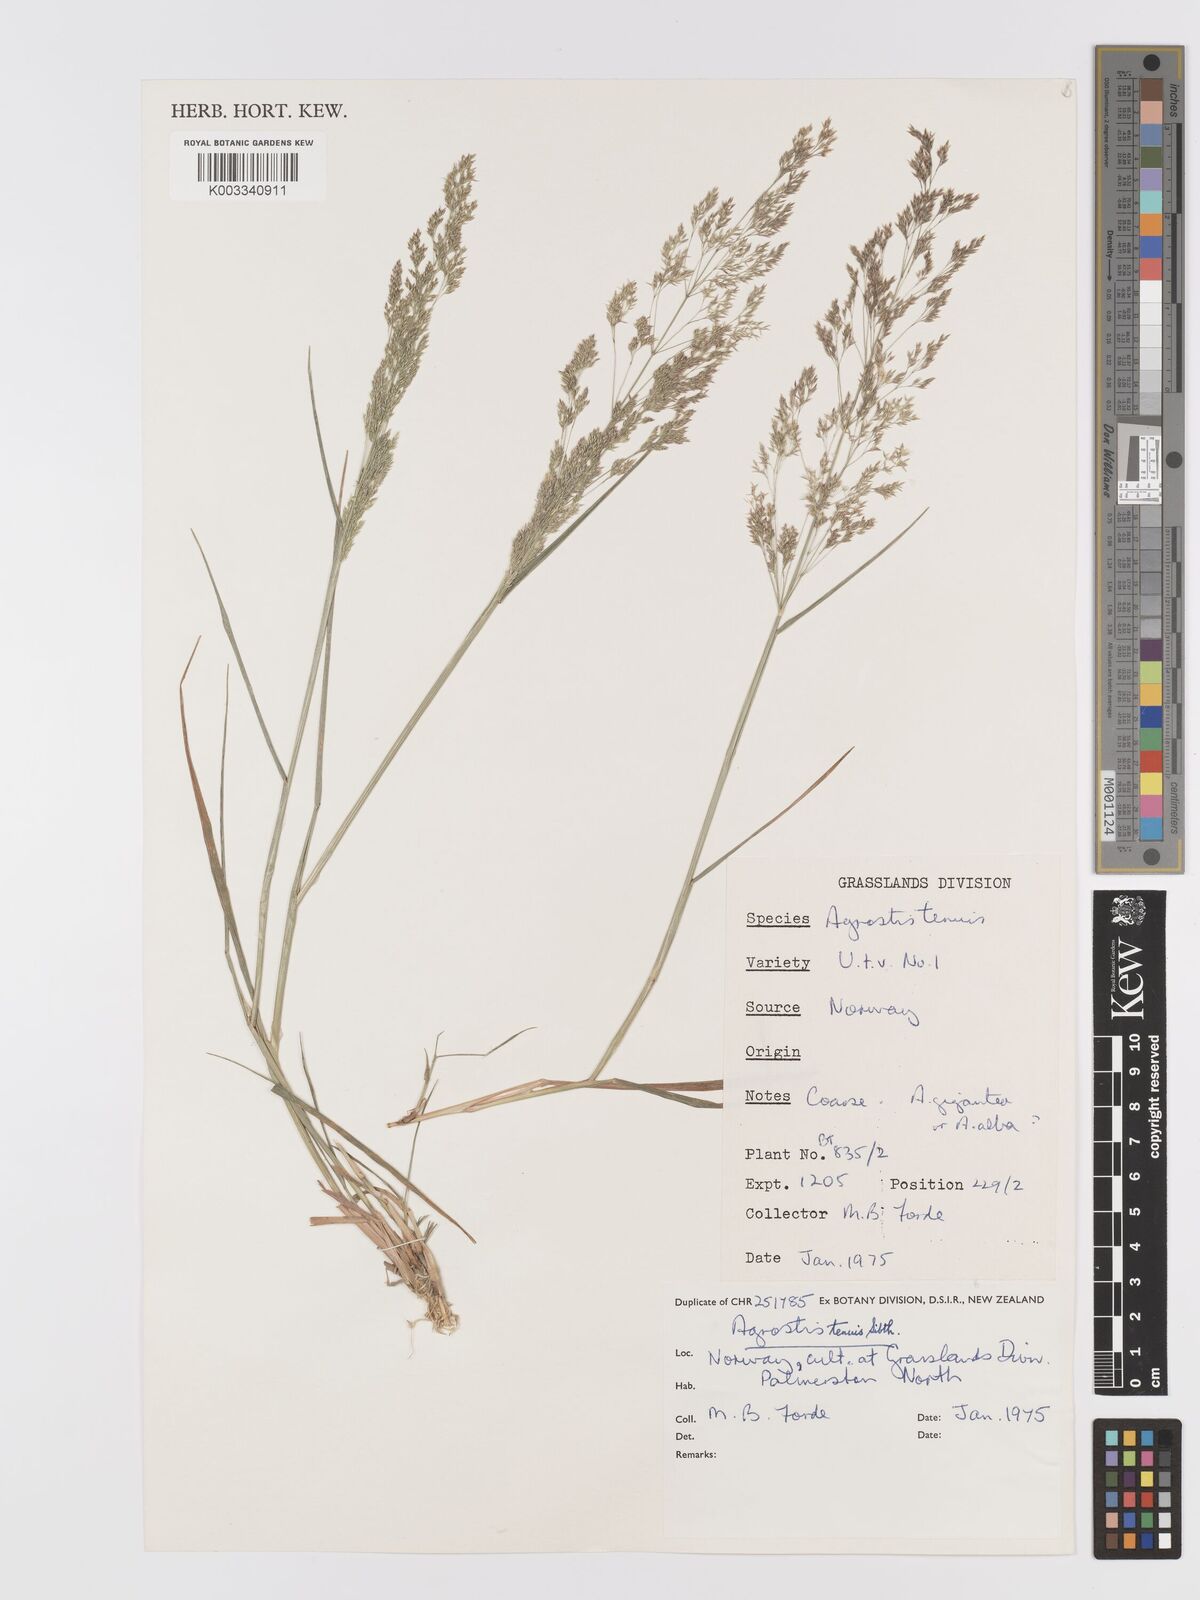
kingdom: Plantae
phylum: Tracheophyta
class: Liliopsida
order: Poales
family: Poaceae
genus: Agrostis
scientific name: Agrostis capillaris
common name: Colonial bentgrass
